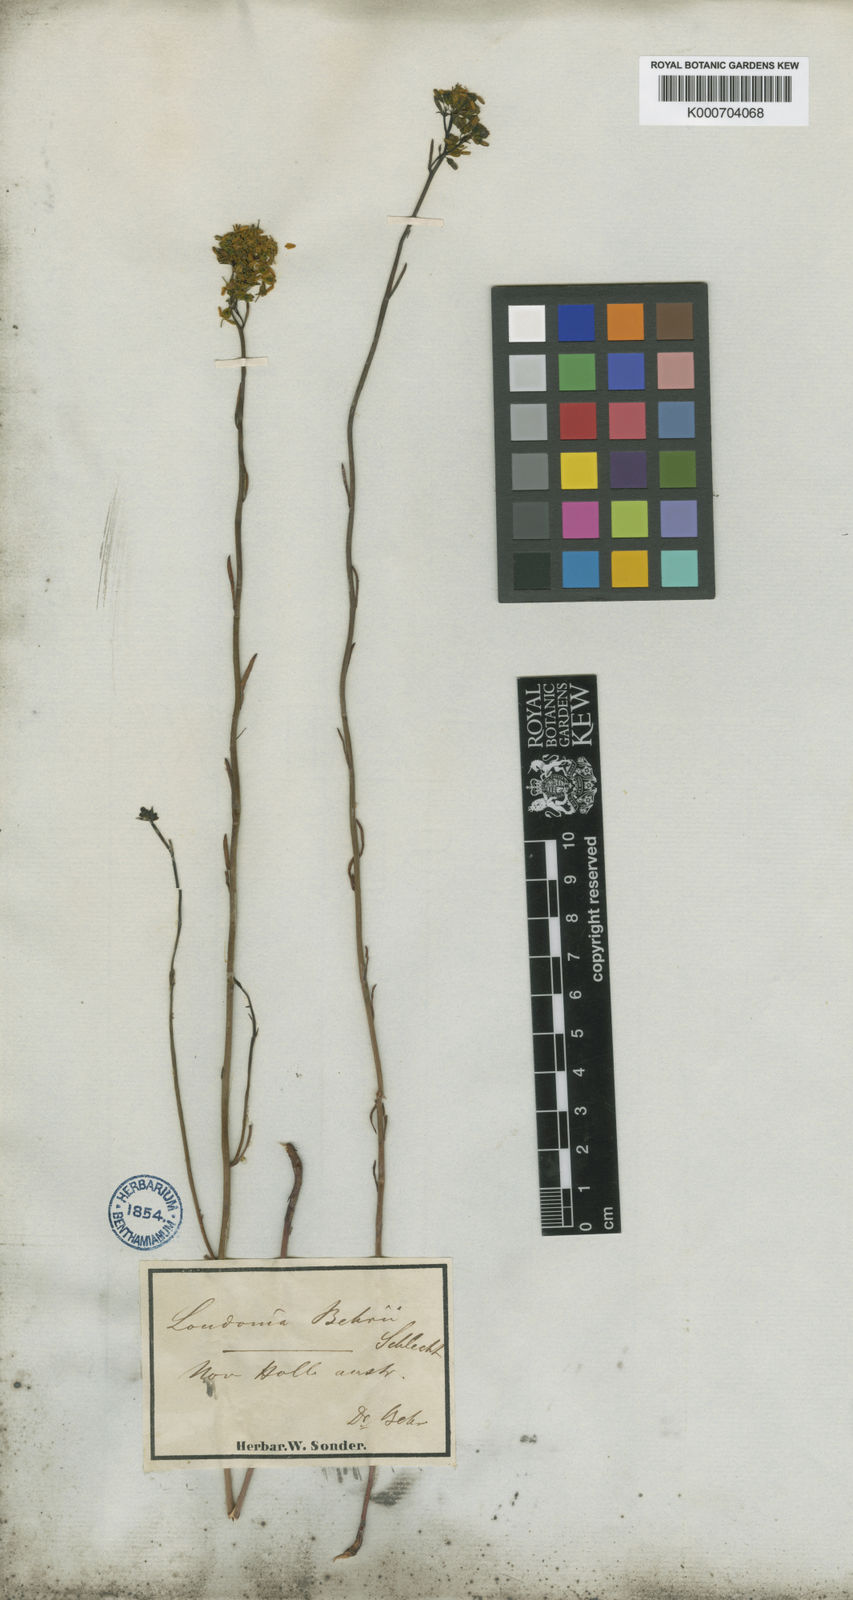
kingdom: Plantae
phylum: Tracheophyta
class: Magnoliopsida
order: Saxifragales
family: Haloragaceae
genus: Glischrocaryon
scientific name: Glischrocaryon behrii
